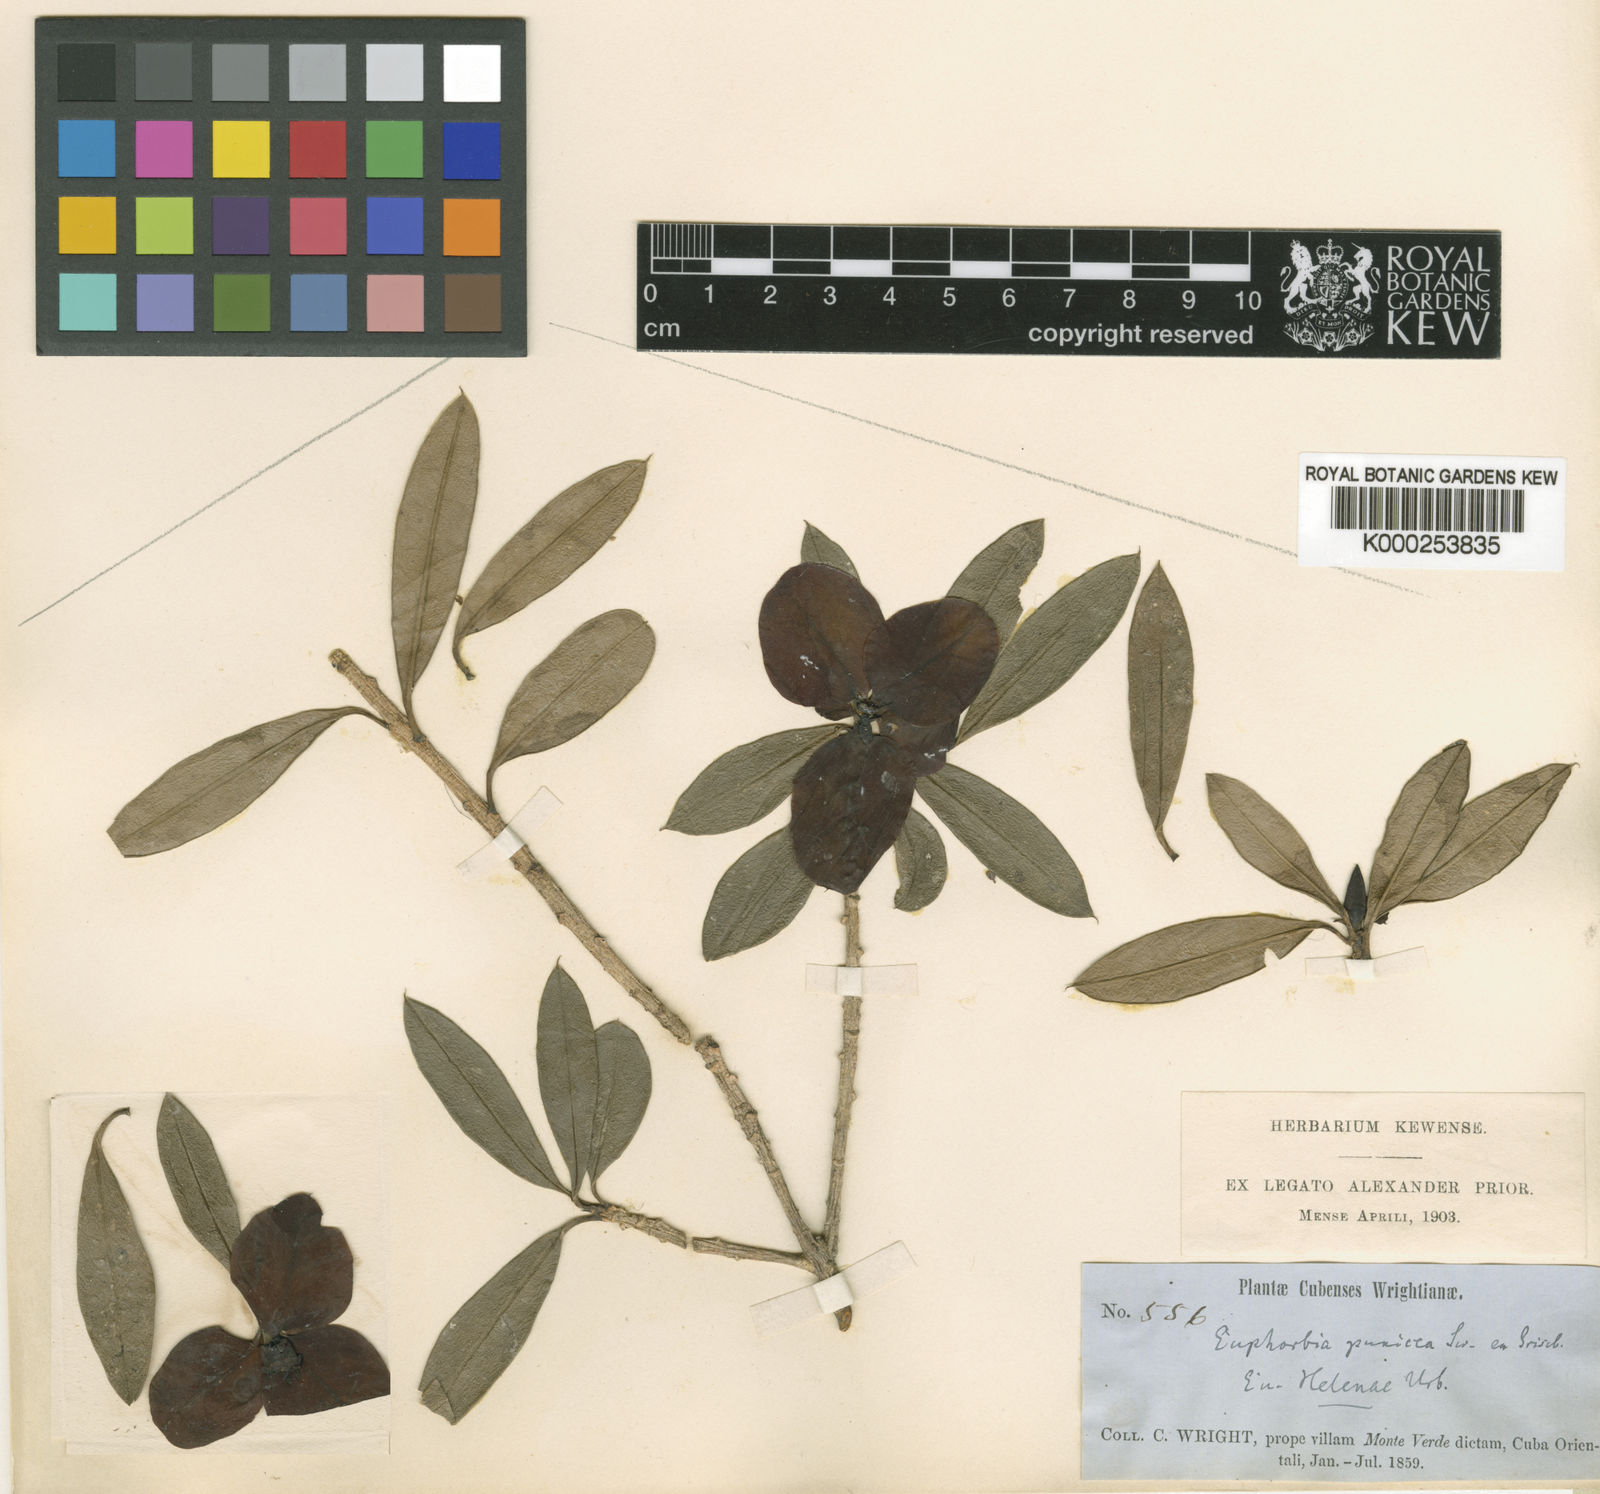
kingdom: Plantae
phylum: Tracheophyta
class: Magnoliopsida
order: Malpighiales
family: Euphorbiaceae
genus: Euphorbia
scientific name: Euphorbia helenae
